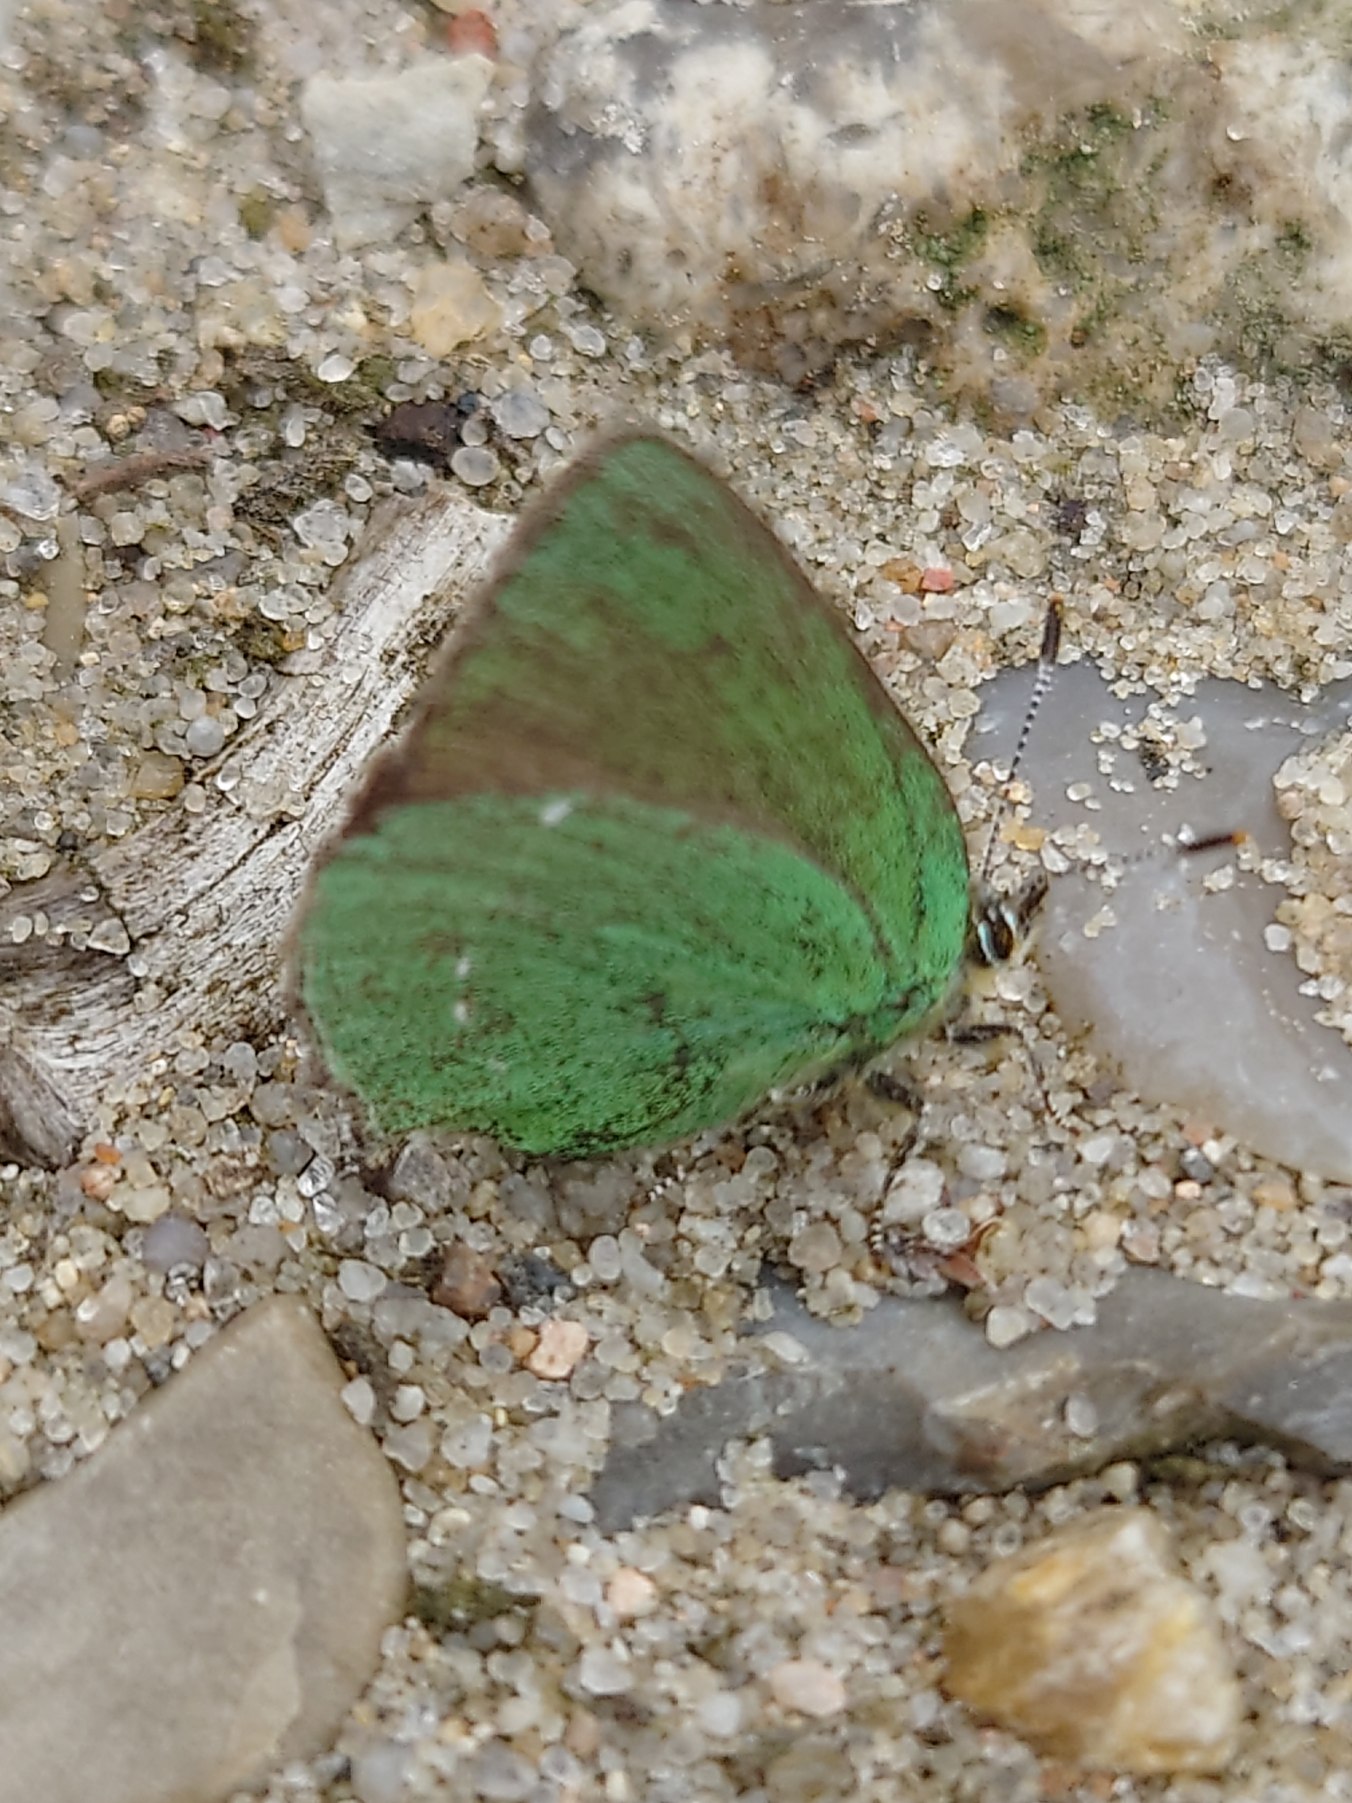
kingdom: Animalia
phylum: Arthropoda
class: Insecta
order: Lepidoptera
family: Lycaenidae
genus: Callophrys
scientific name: Callophrys rubi
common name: Grøn busksommerfugl
